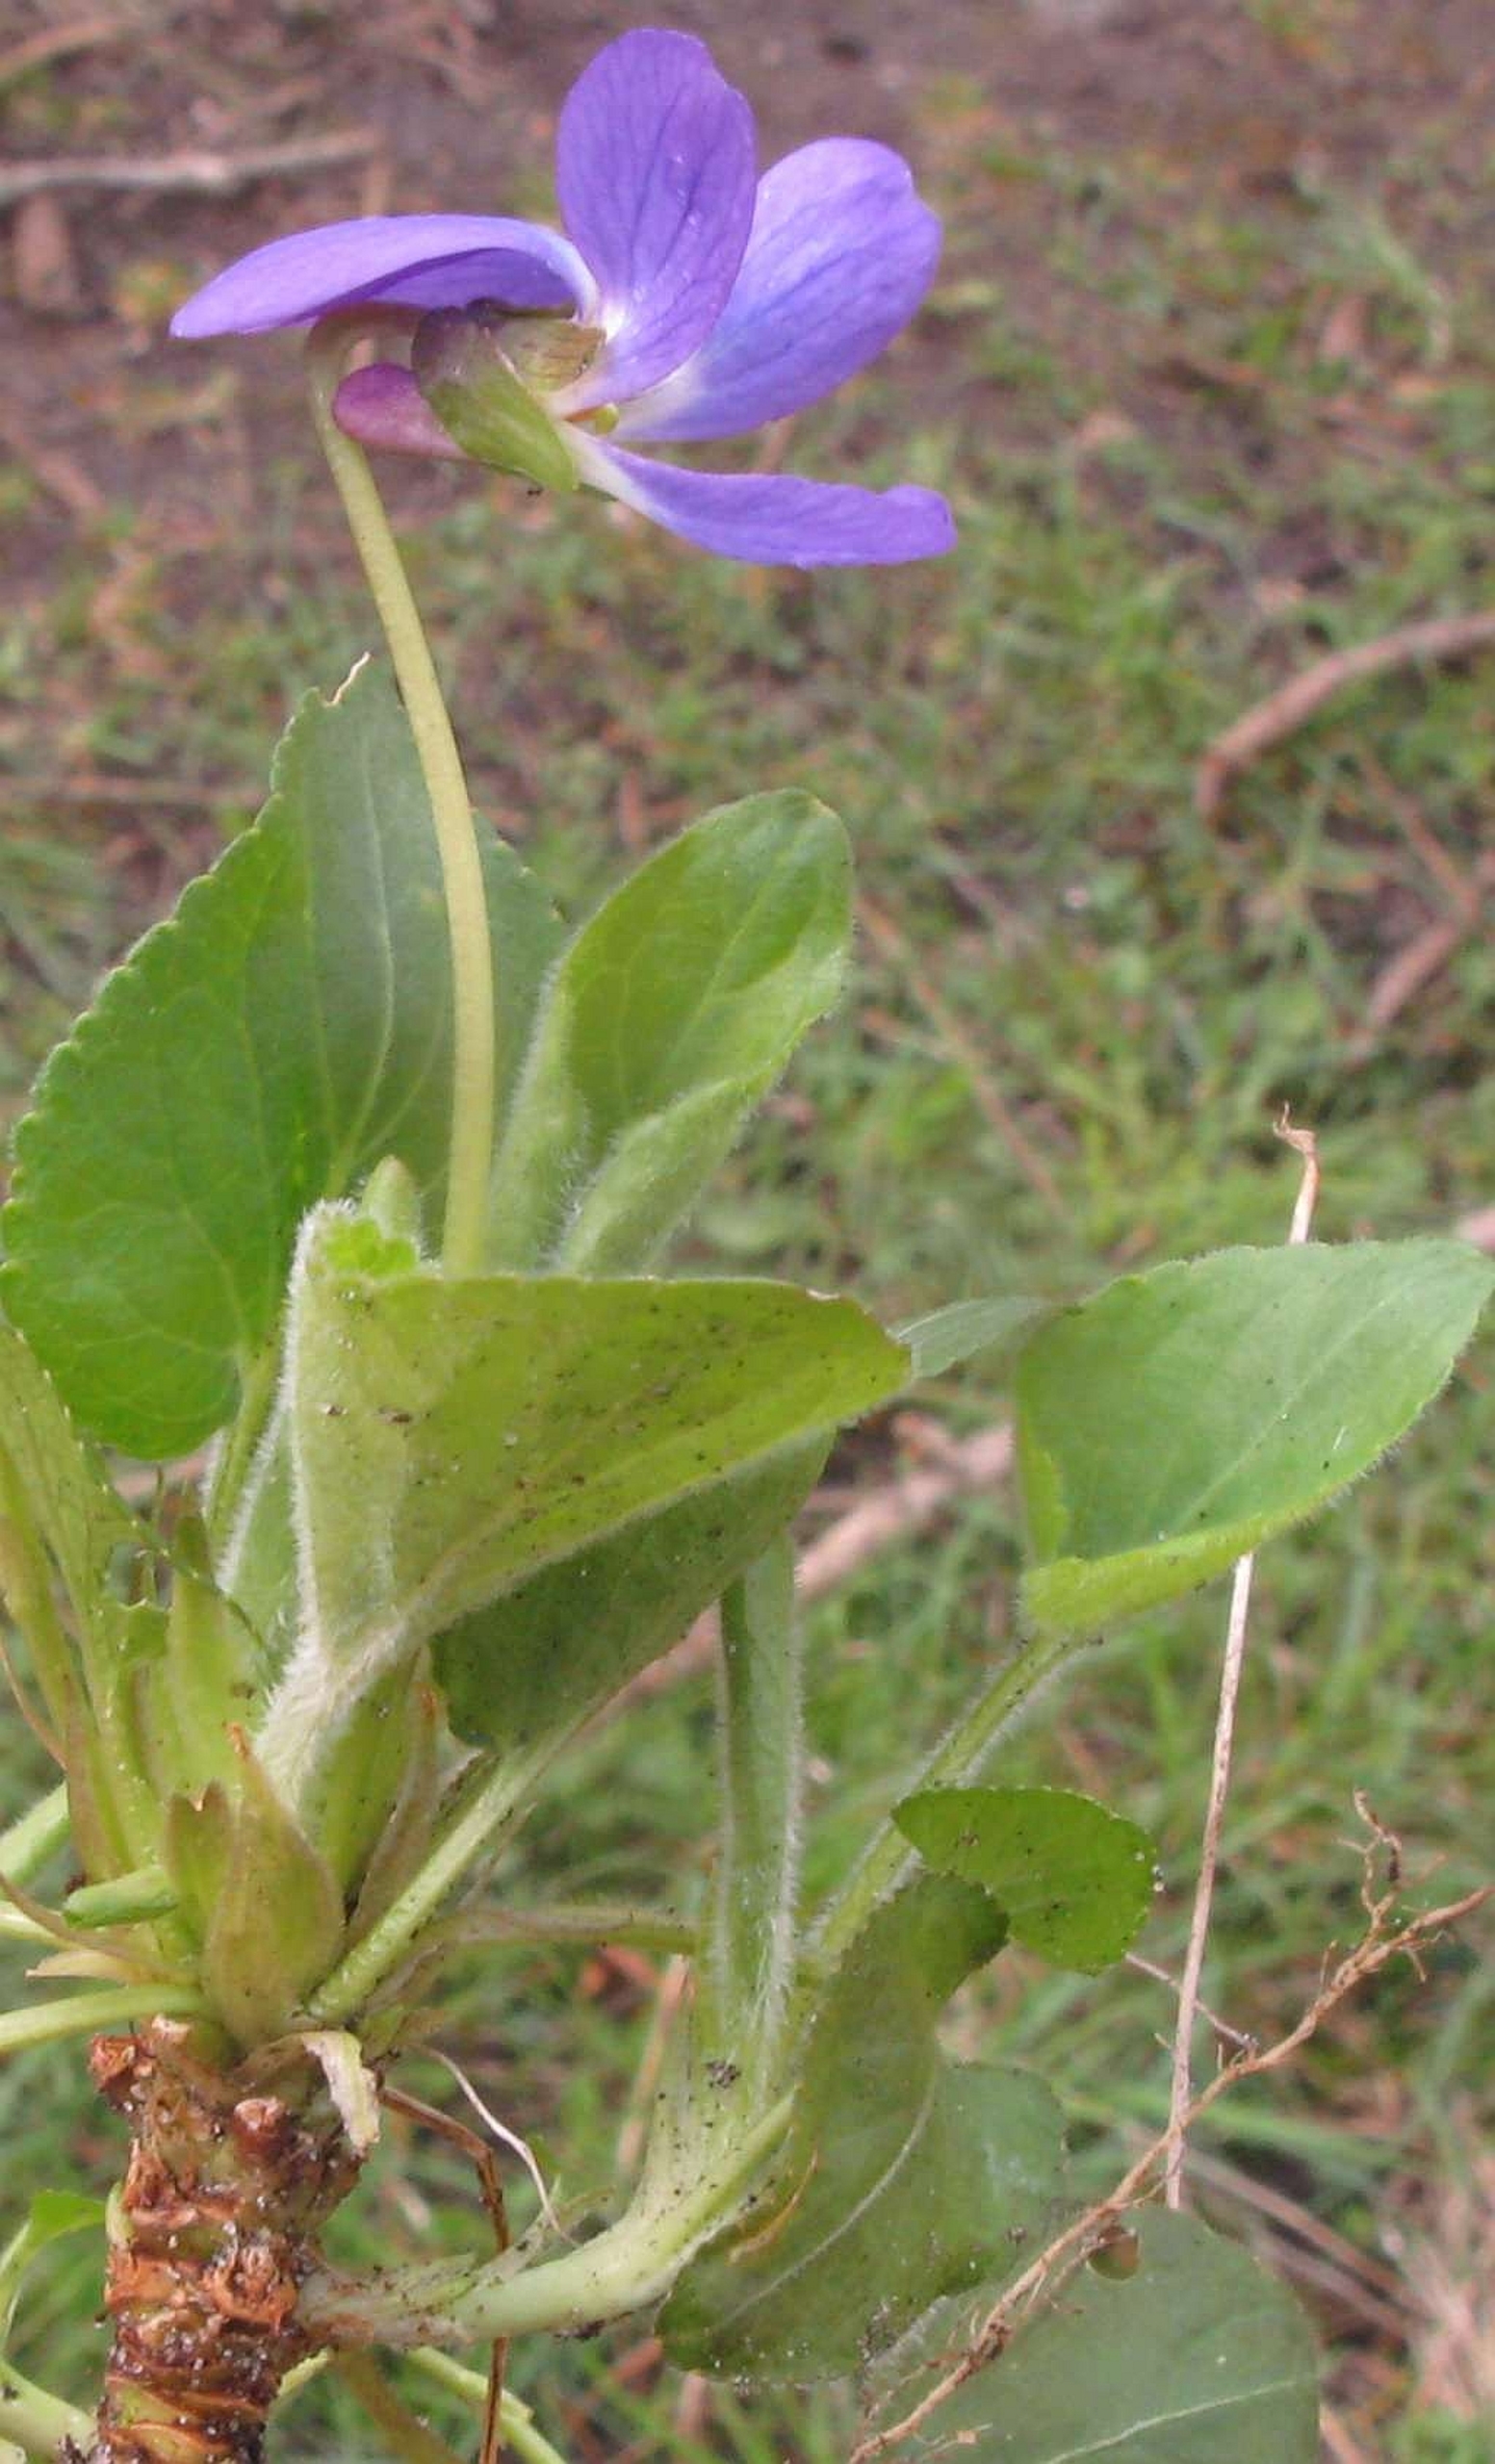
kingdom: Plantae
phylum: Tracheophyta
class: Magnoliopsida
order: Malpighiales
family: Violaceae
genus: Viola
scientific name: Viola hirta
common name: Håret viol
